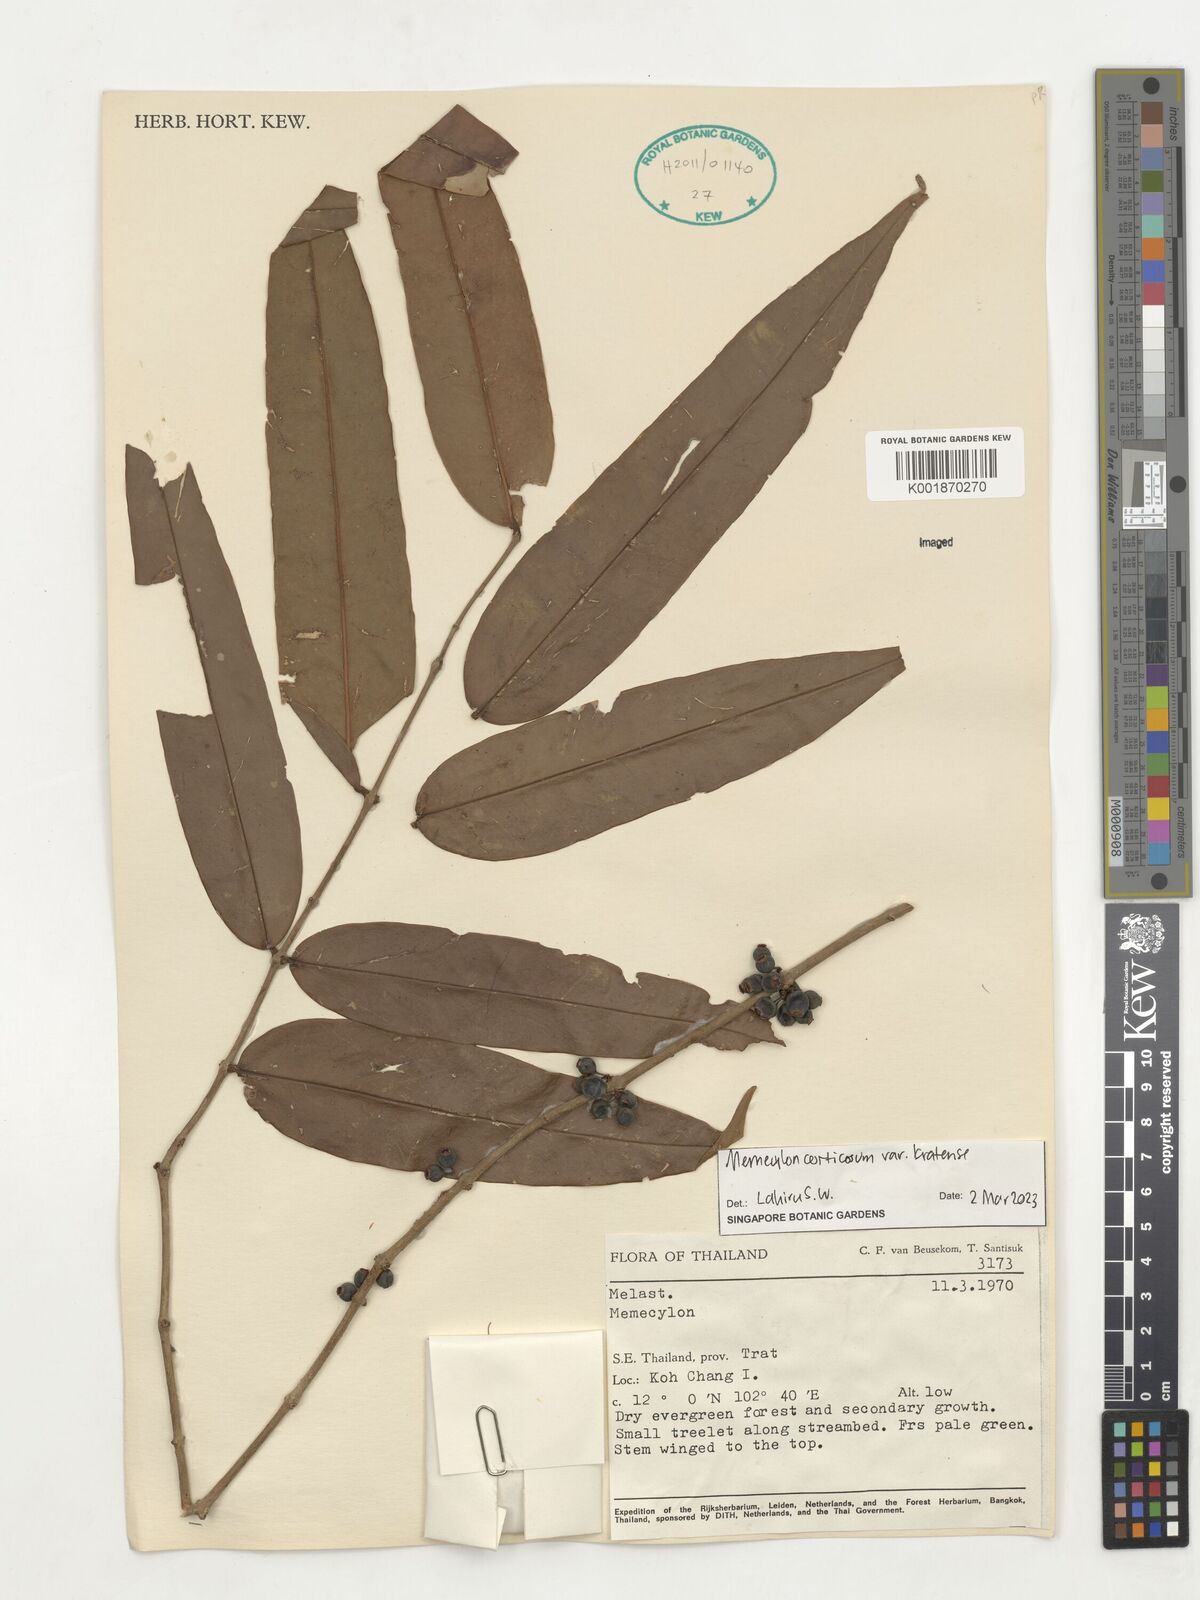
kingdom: Plantae
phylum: Tracheophyta
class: Magnoliopsida
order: Myrtales
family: Melastomataceae
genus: Memecylon
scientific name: Memecylon corticosum
